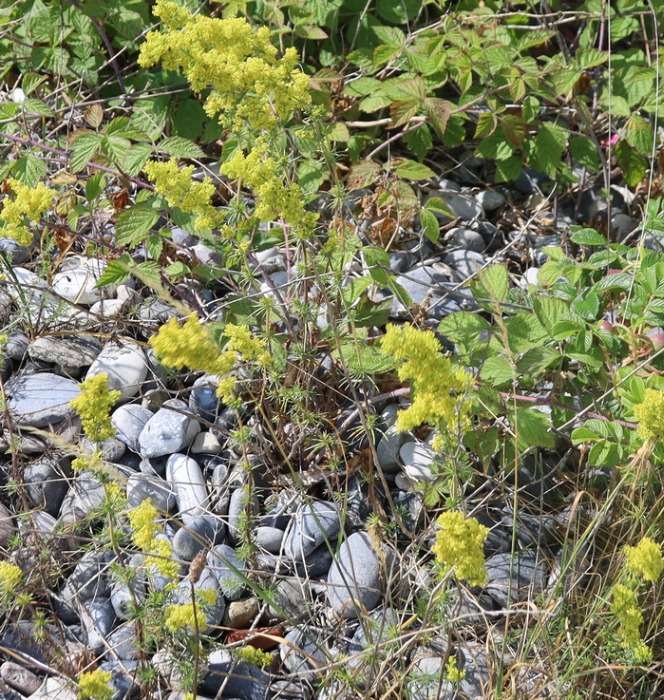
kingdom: Plantae
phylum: Tracheophyta
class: Magnoliopsida
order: Gentianales
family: Rubiaceae
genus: Galium
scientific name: Galium verum
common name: Gul snerre
